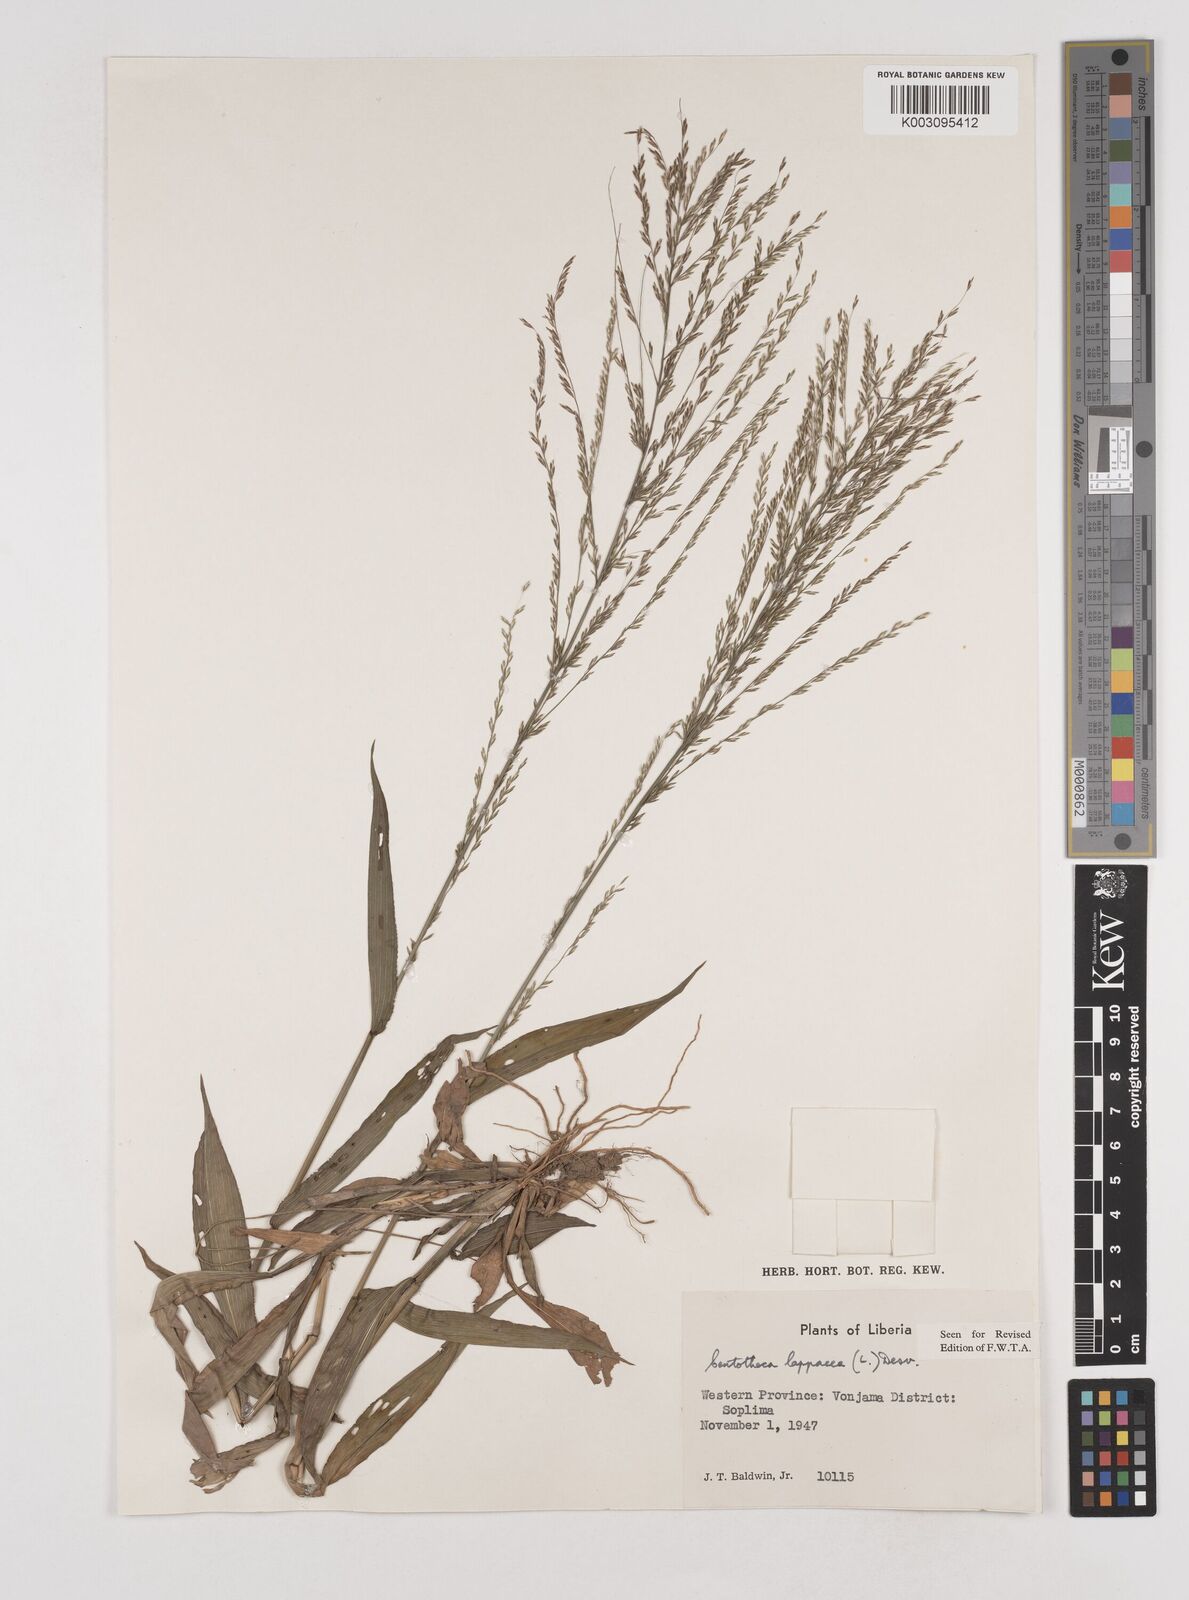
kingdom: Plantae
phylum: Tracheophyta
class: Liliopsida
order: Poales
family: Poaceae
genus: Centotheca
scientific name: Centotheca lappacea
